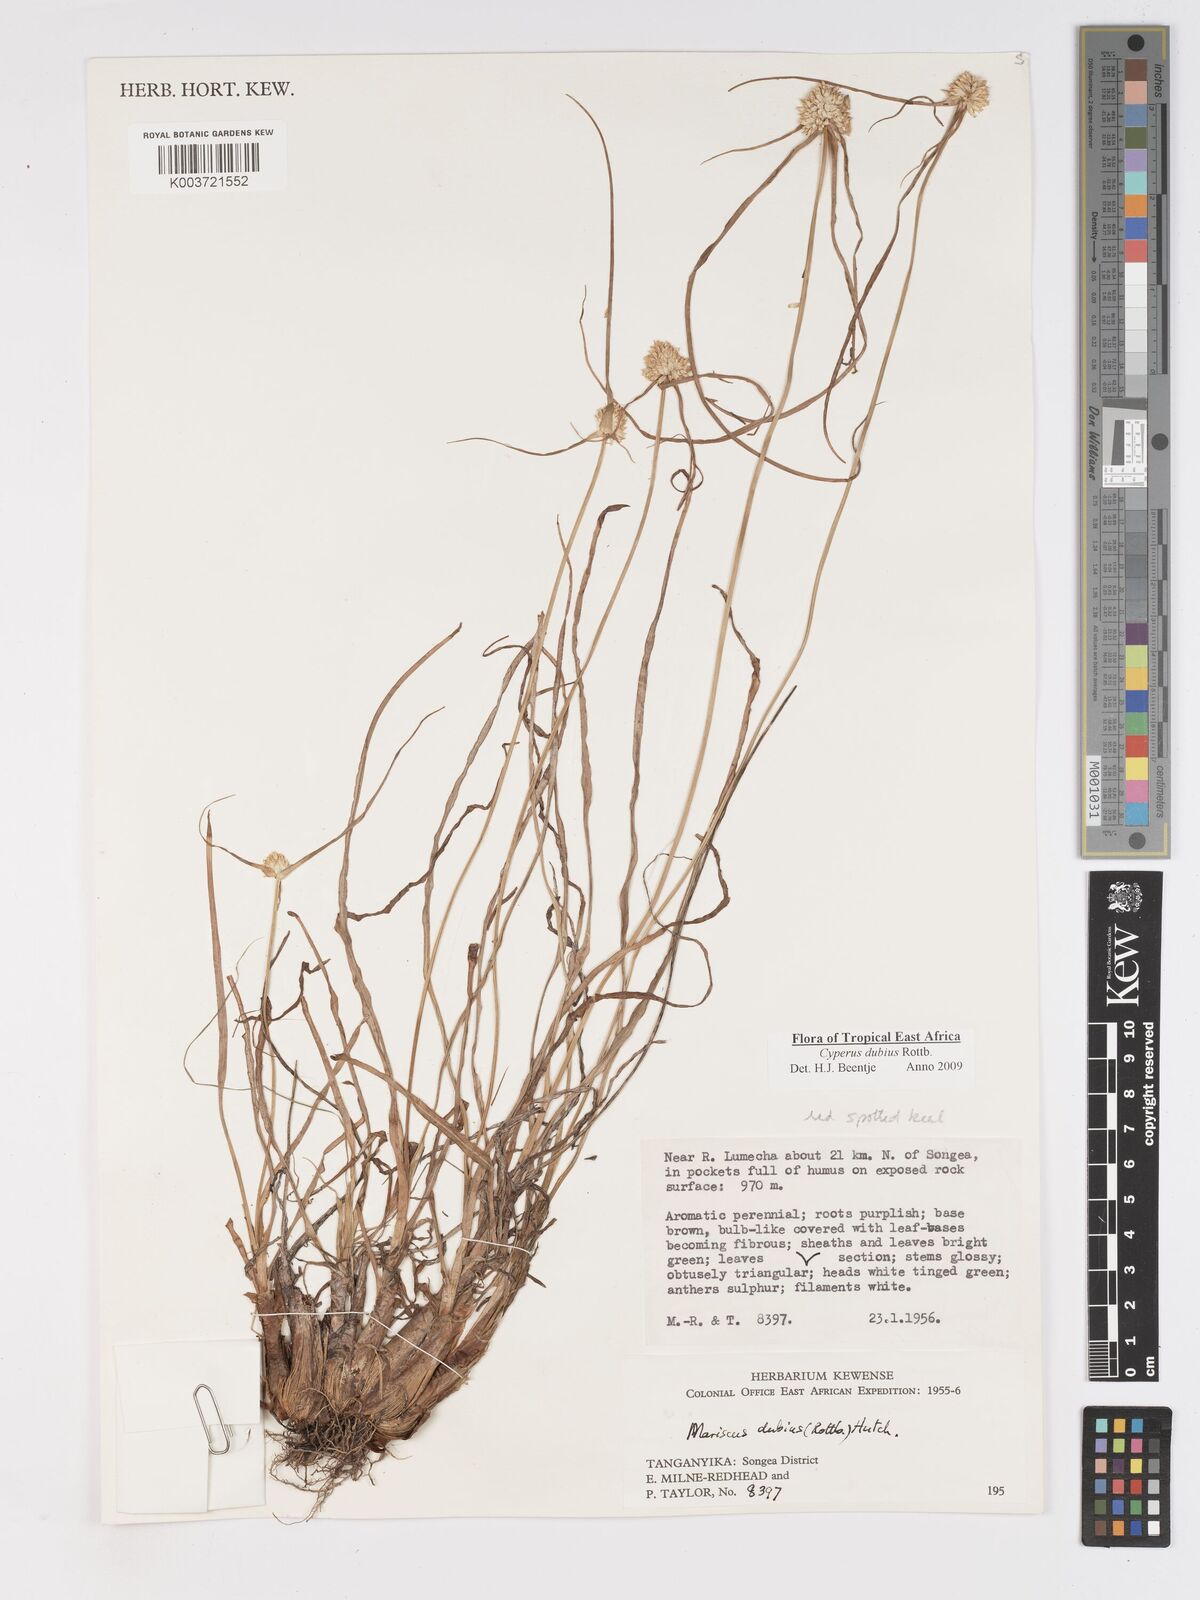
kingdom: Plantae
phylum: Tracheophyta
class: Liliopsida
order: Poales
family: Cyperaceae
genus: Cyperus
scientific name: Cyperus dubius
